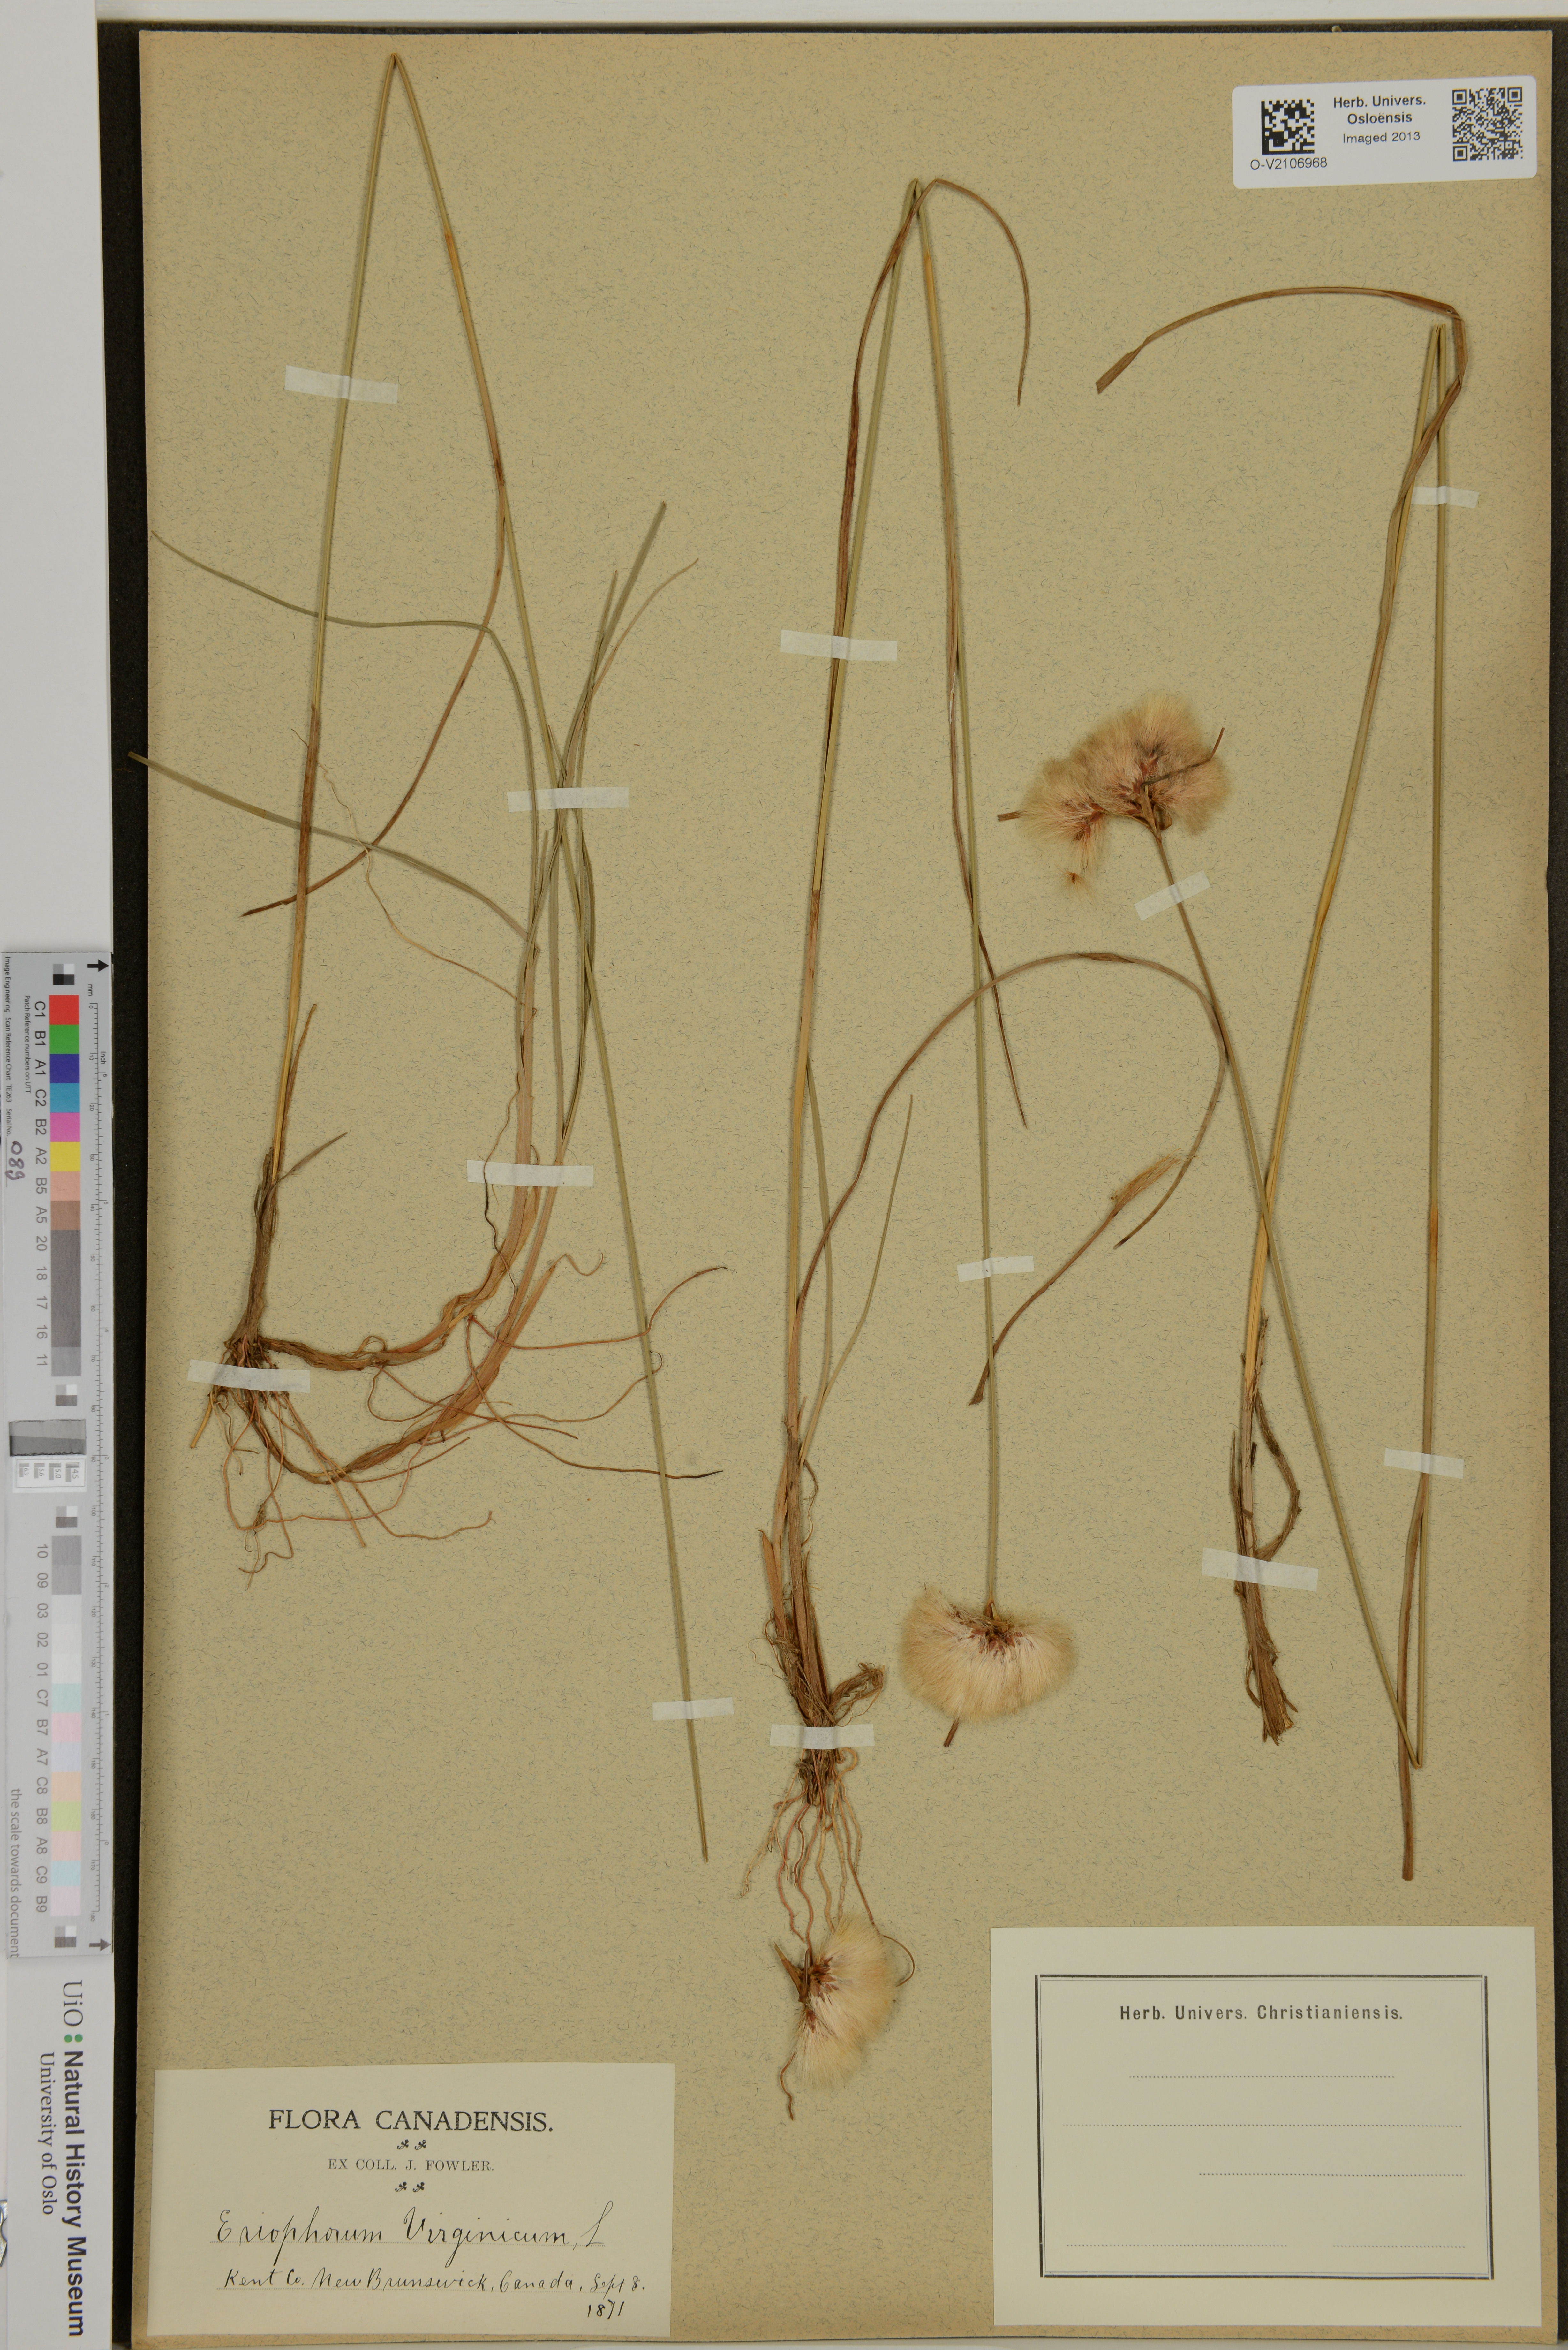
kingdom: Plantae
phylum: Tracheophyta
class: Liliopsida
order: Poales
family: Cyperaceae
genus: Eriophorum
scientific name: Eriophorum virginicum
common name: Tawny cottongrass
